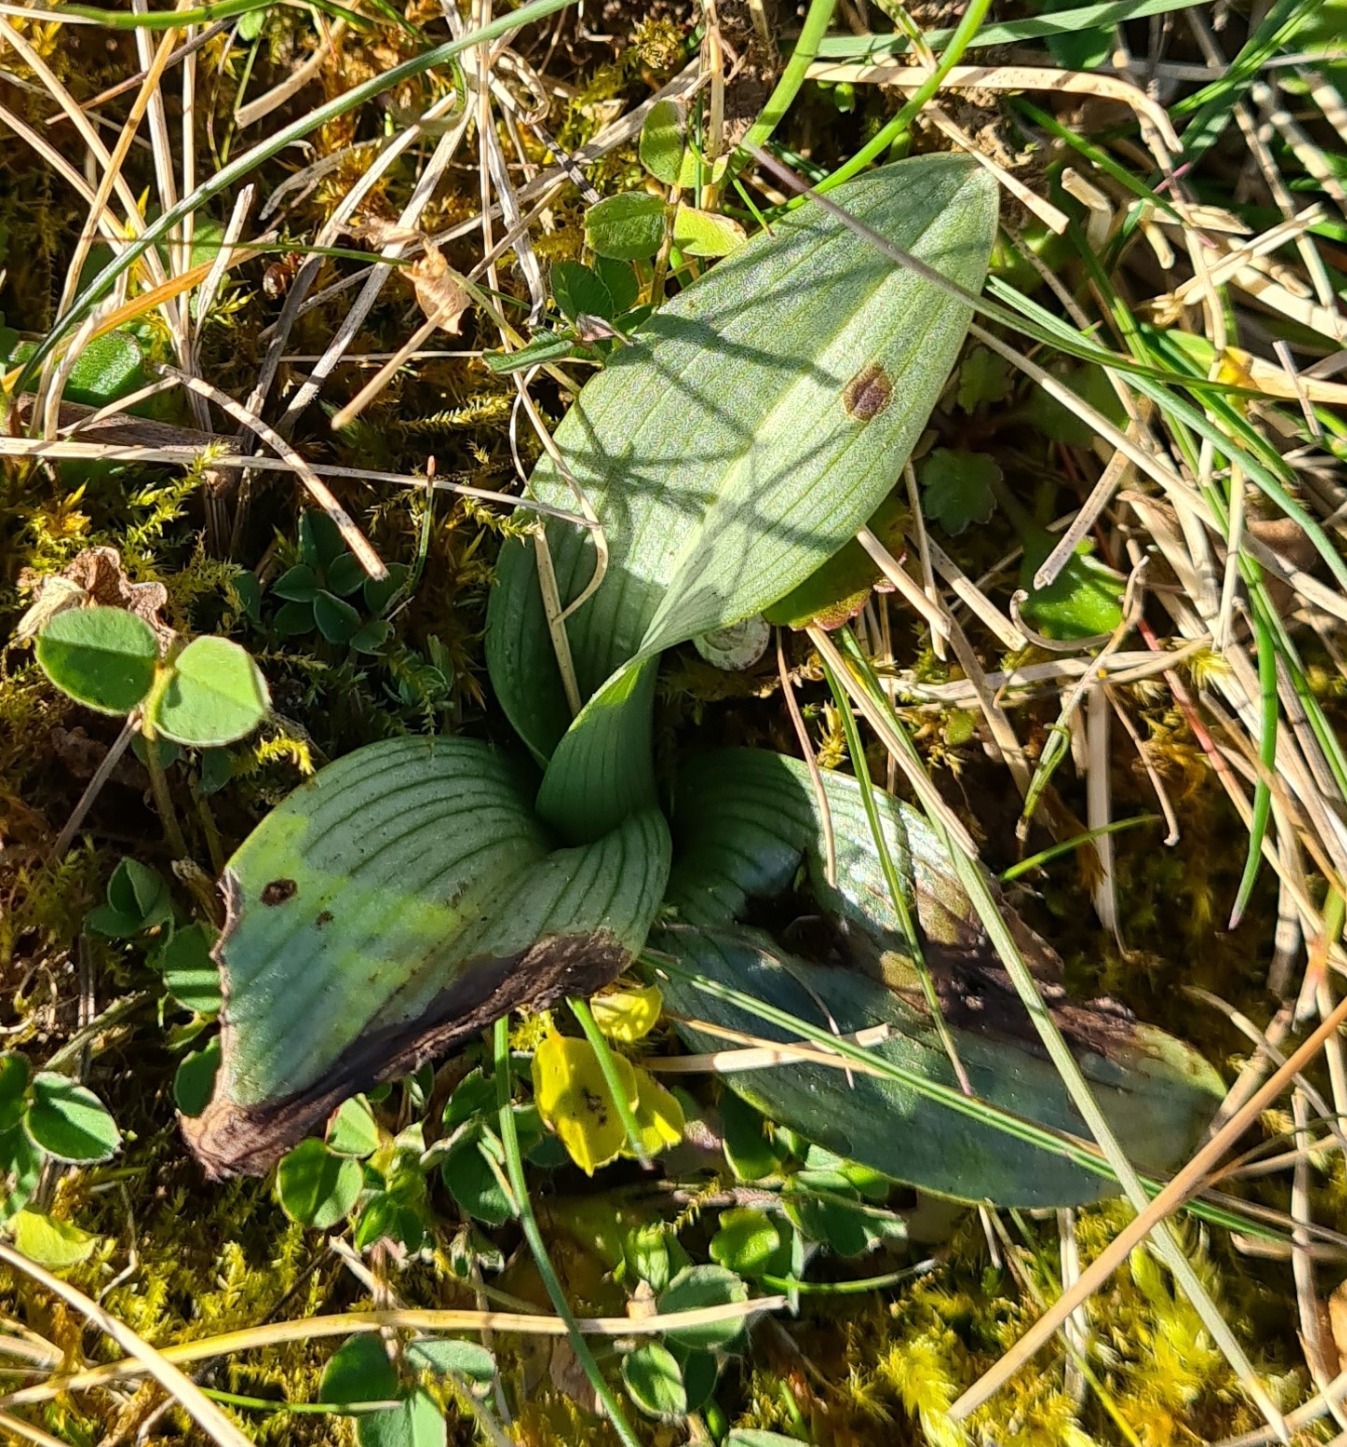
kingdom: Plantae
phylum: Tracheophyta
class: Liliopsida
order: Asparagales
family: Orchidaceae
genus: Ophrys
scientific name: Ophrys apifera
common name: Biblomst
